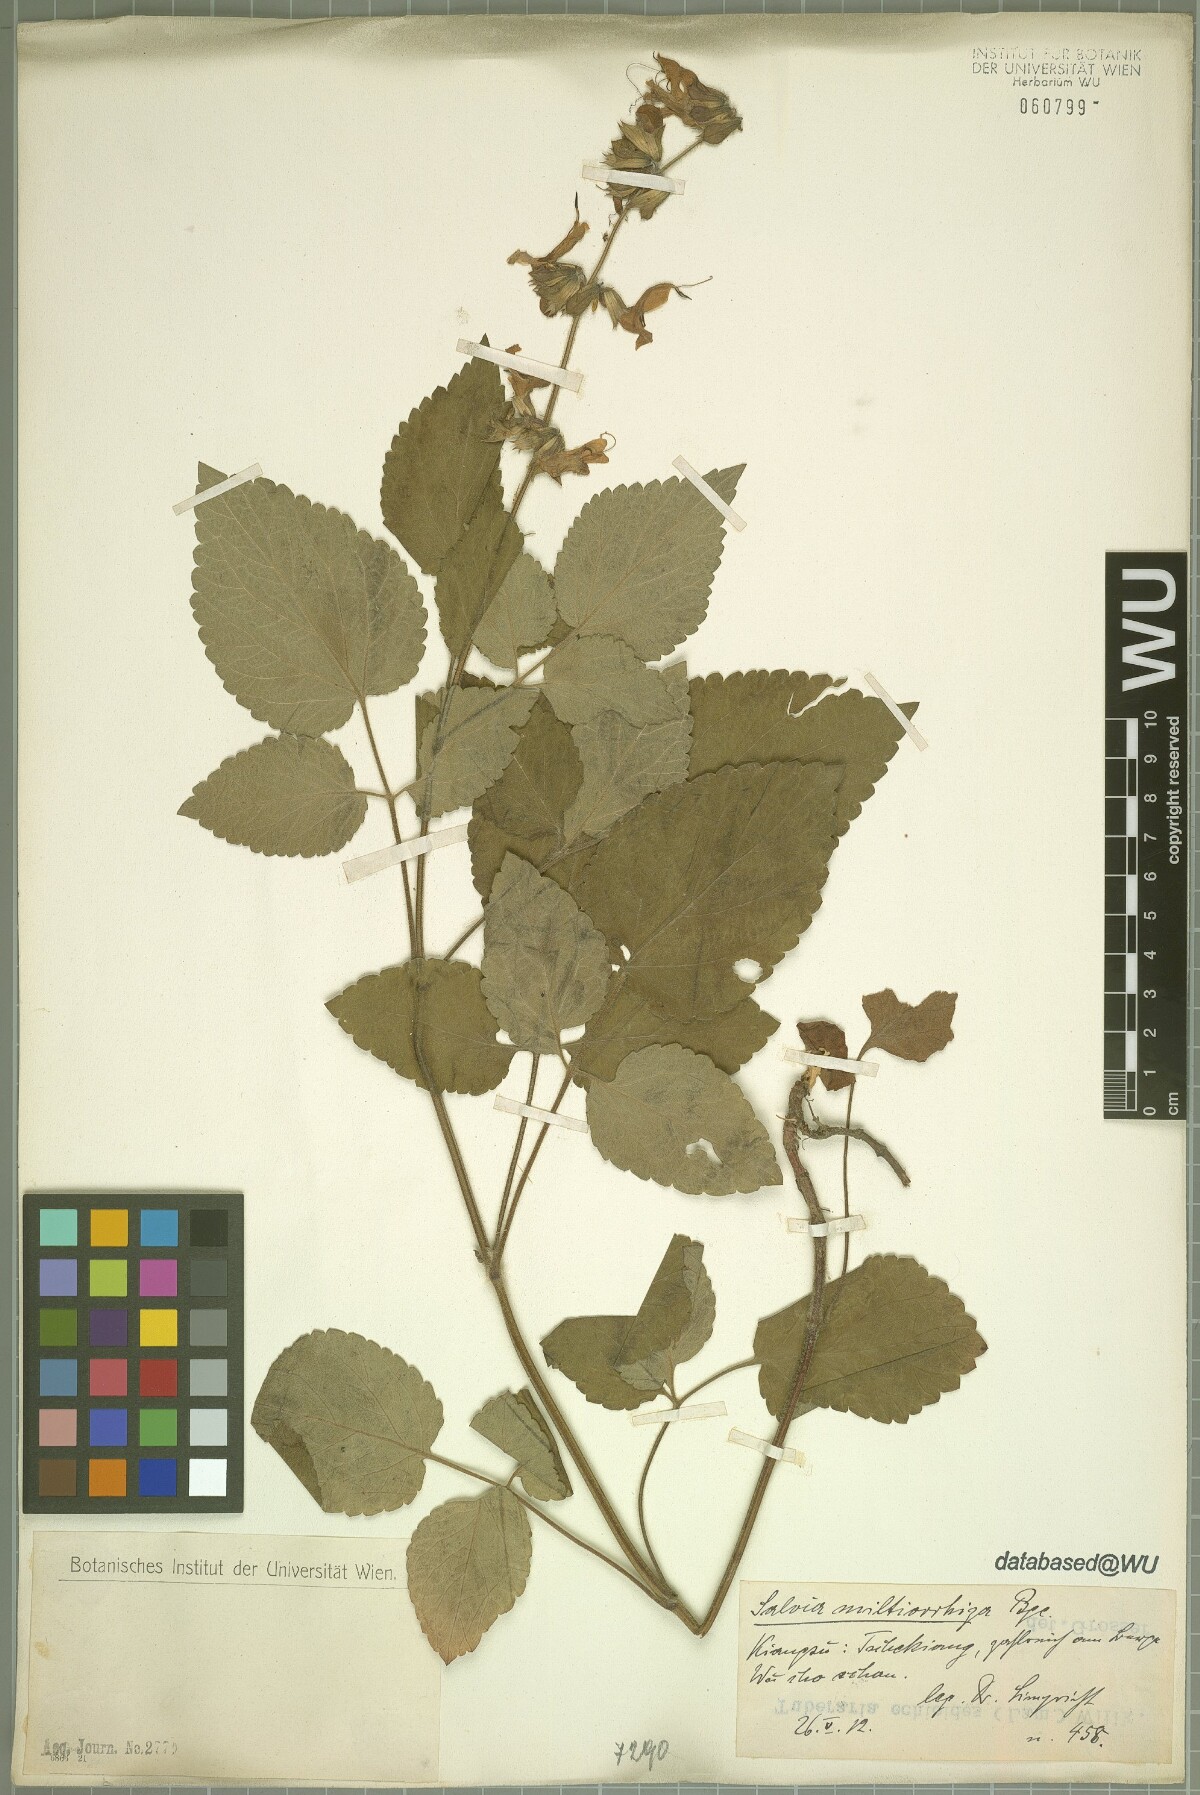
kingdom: Plantae
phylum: Tracheophyta
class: Magnoliopsida
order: Lamiales
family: Lamiaceae
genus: Salvia
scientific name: Salvia miltiorrhiza
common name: Redroot sage
